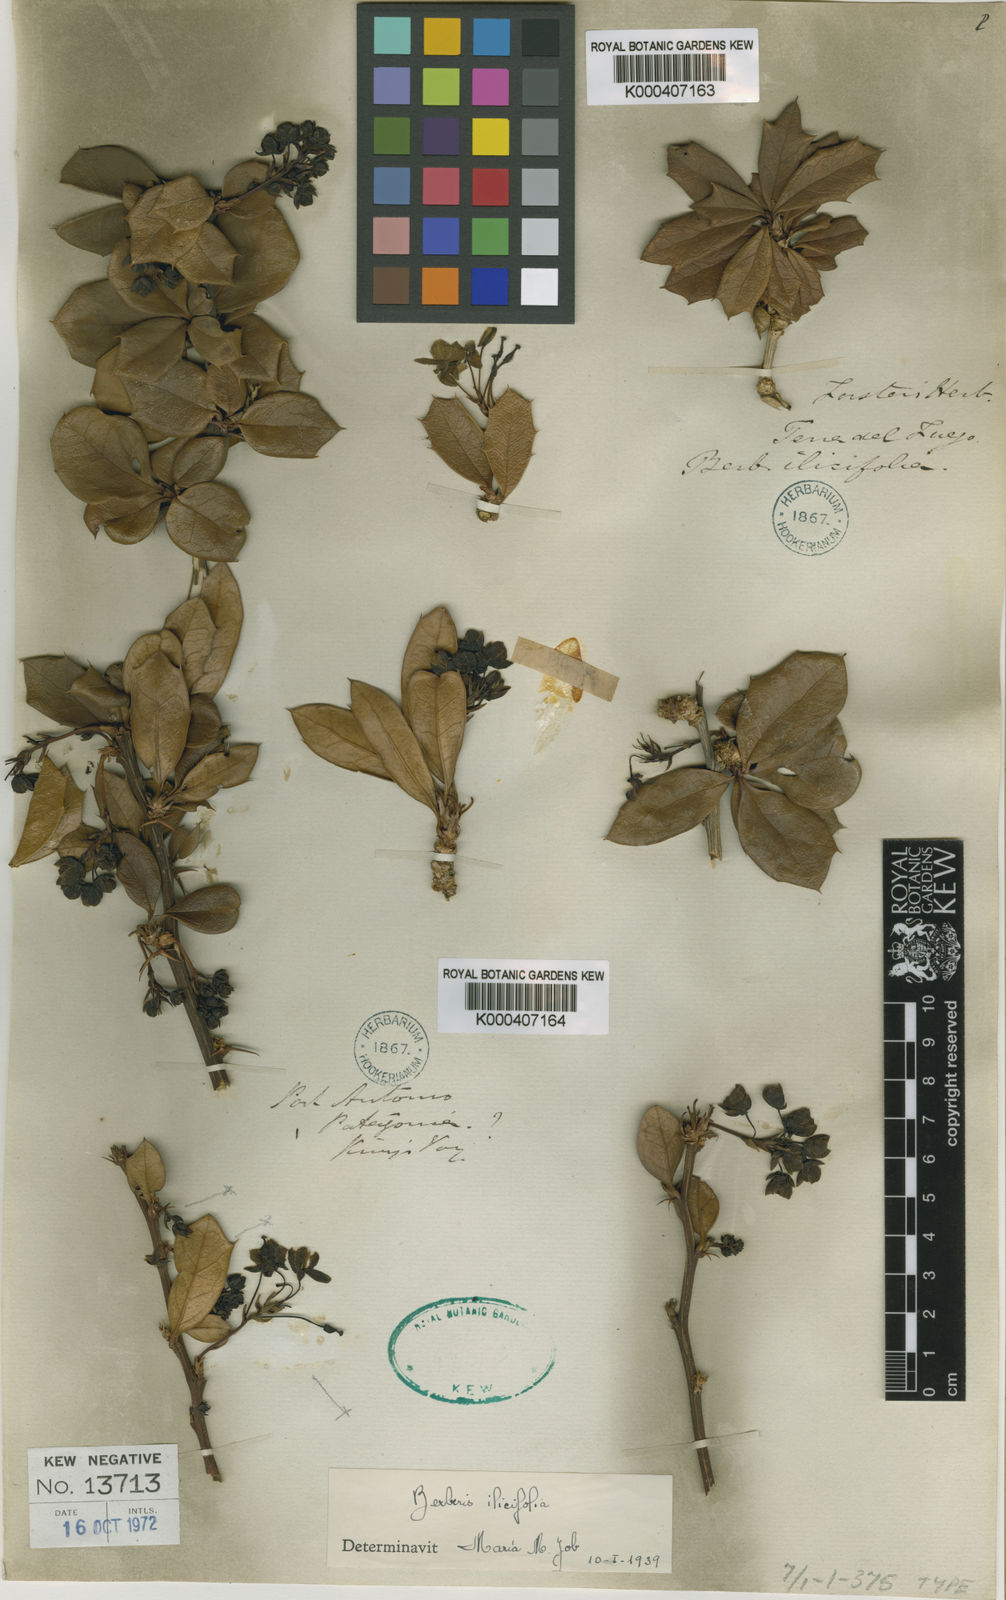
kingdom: Plantae
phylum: Tracheophyta
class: Magnoliopsida
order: Ranunculales
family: Berberidaceae
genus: Berberis
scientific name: Berberis ilicifolia
